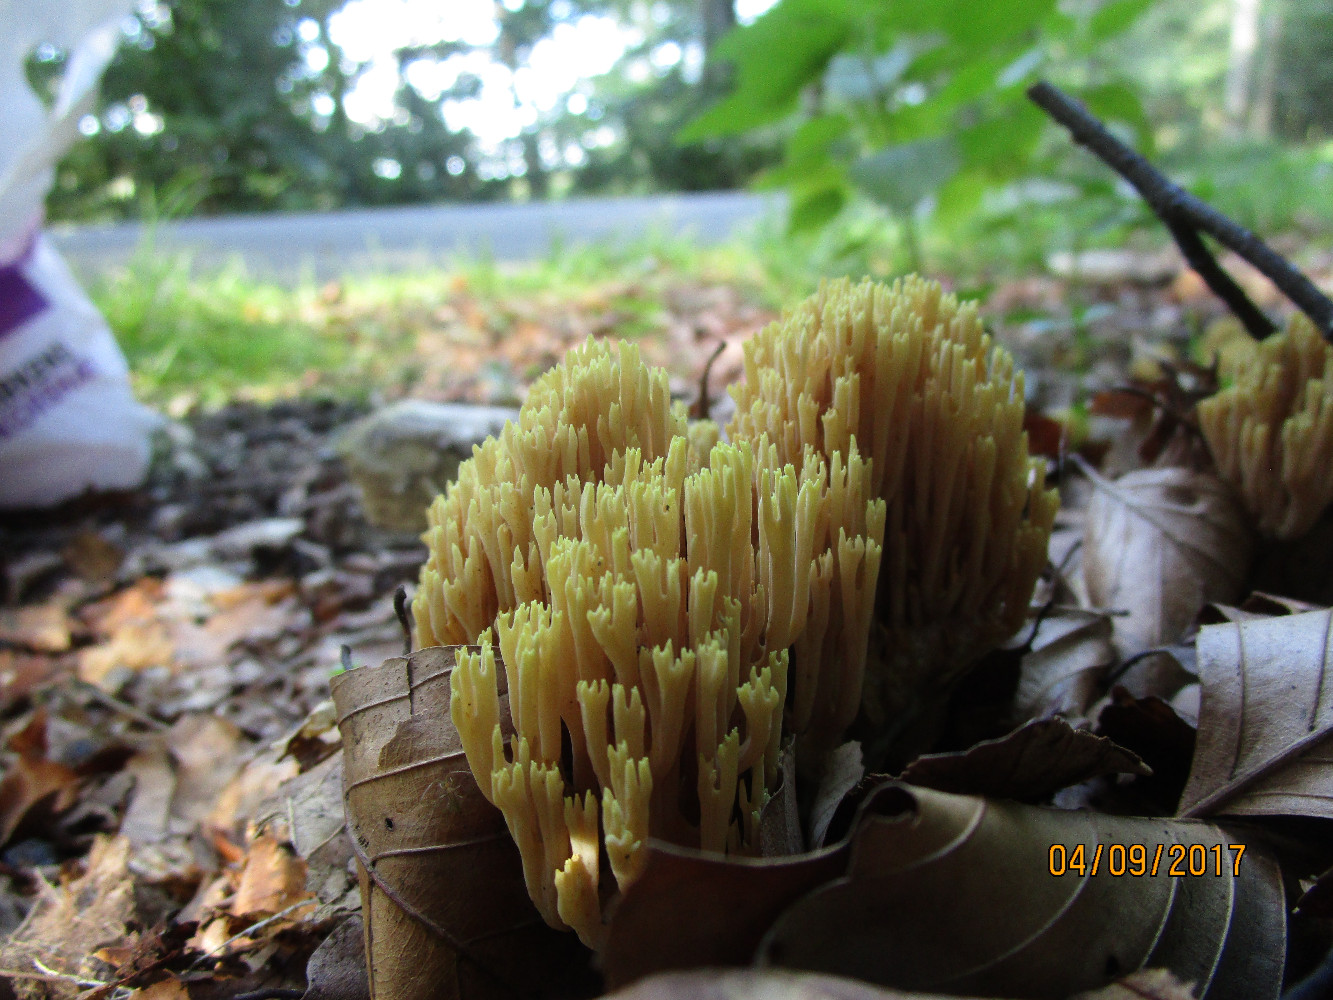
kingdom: Fungi
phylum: Basidiomycota
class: Agaricomycetes
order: Gomphales
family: Gomphaceae
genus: Ramaria
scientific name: Ramaria stricta
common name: rank koralsvamp
